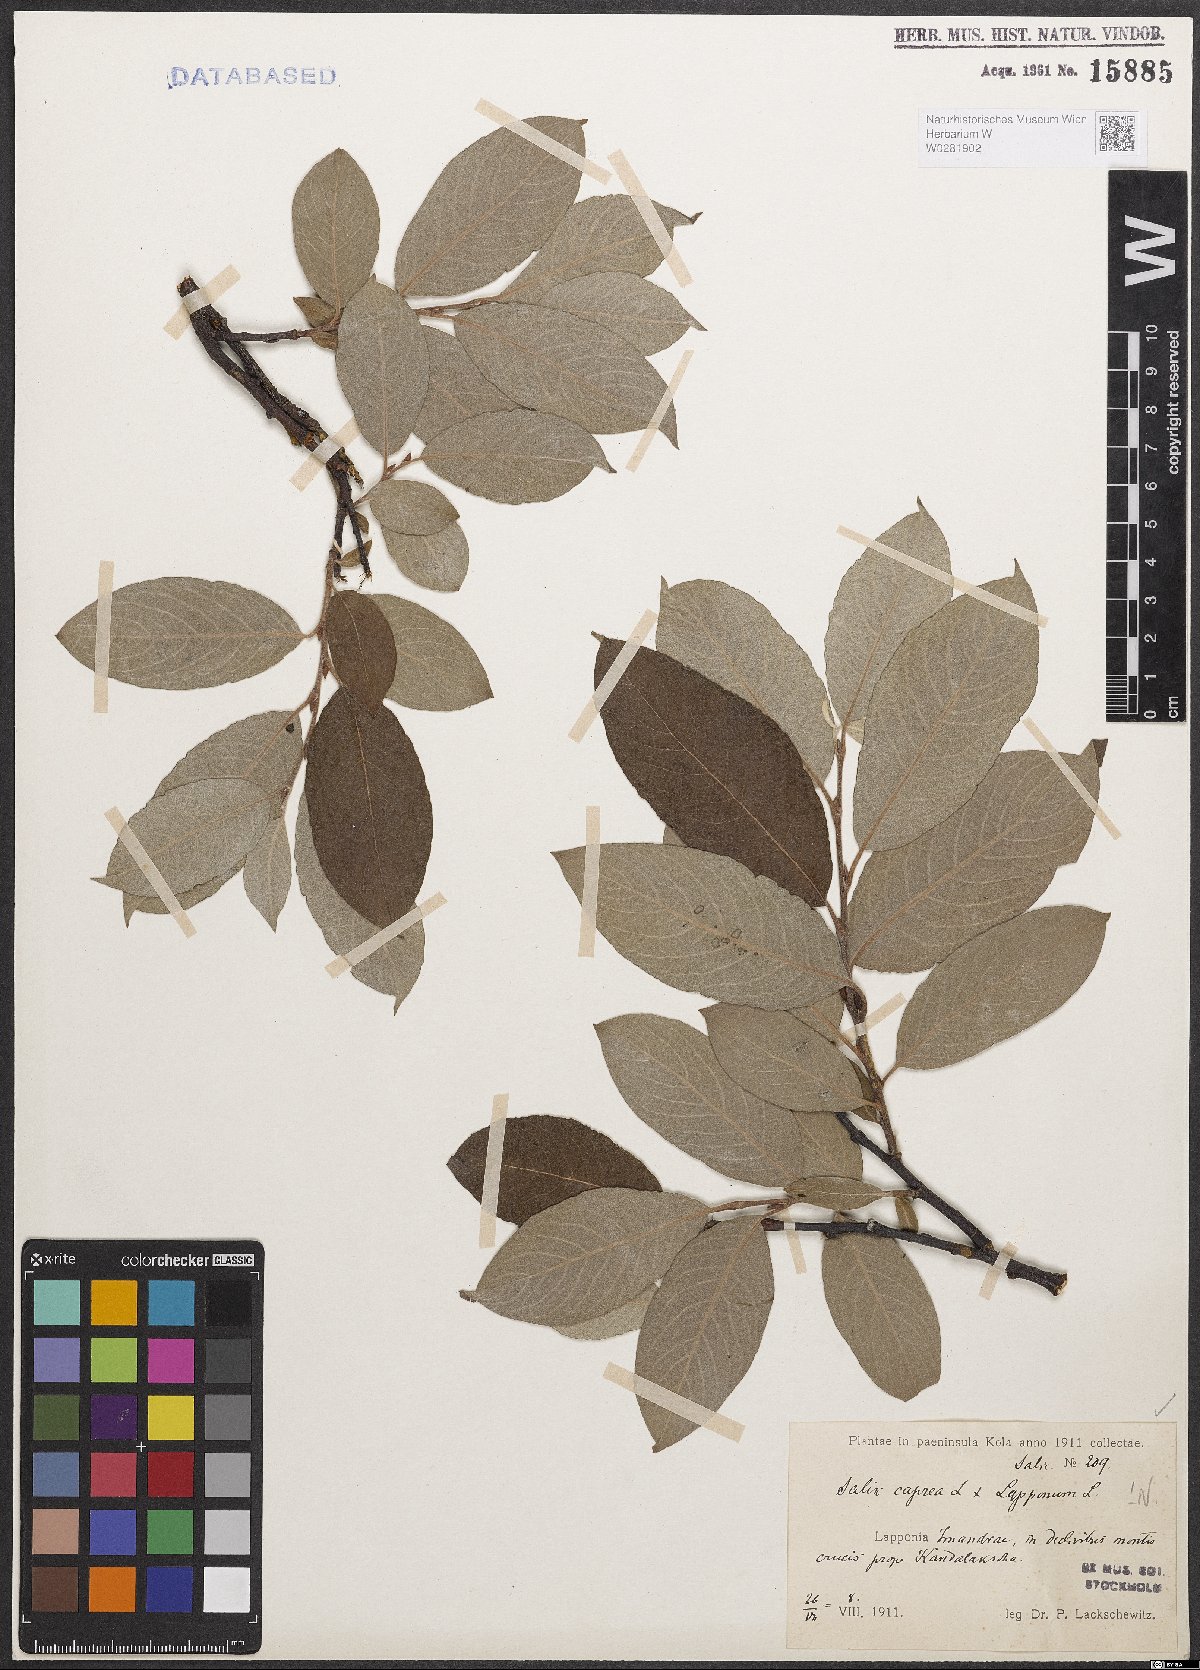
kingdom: Plantae
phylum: Tracheophyta
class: Magnoliopsida
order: Malpighiales
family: Salicaceae
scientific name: Salicaceae
